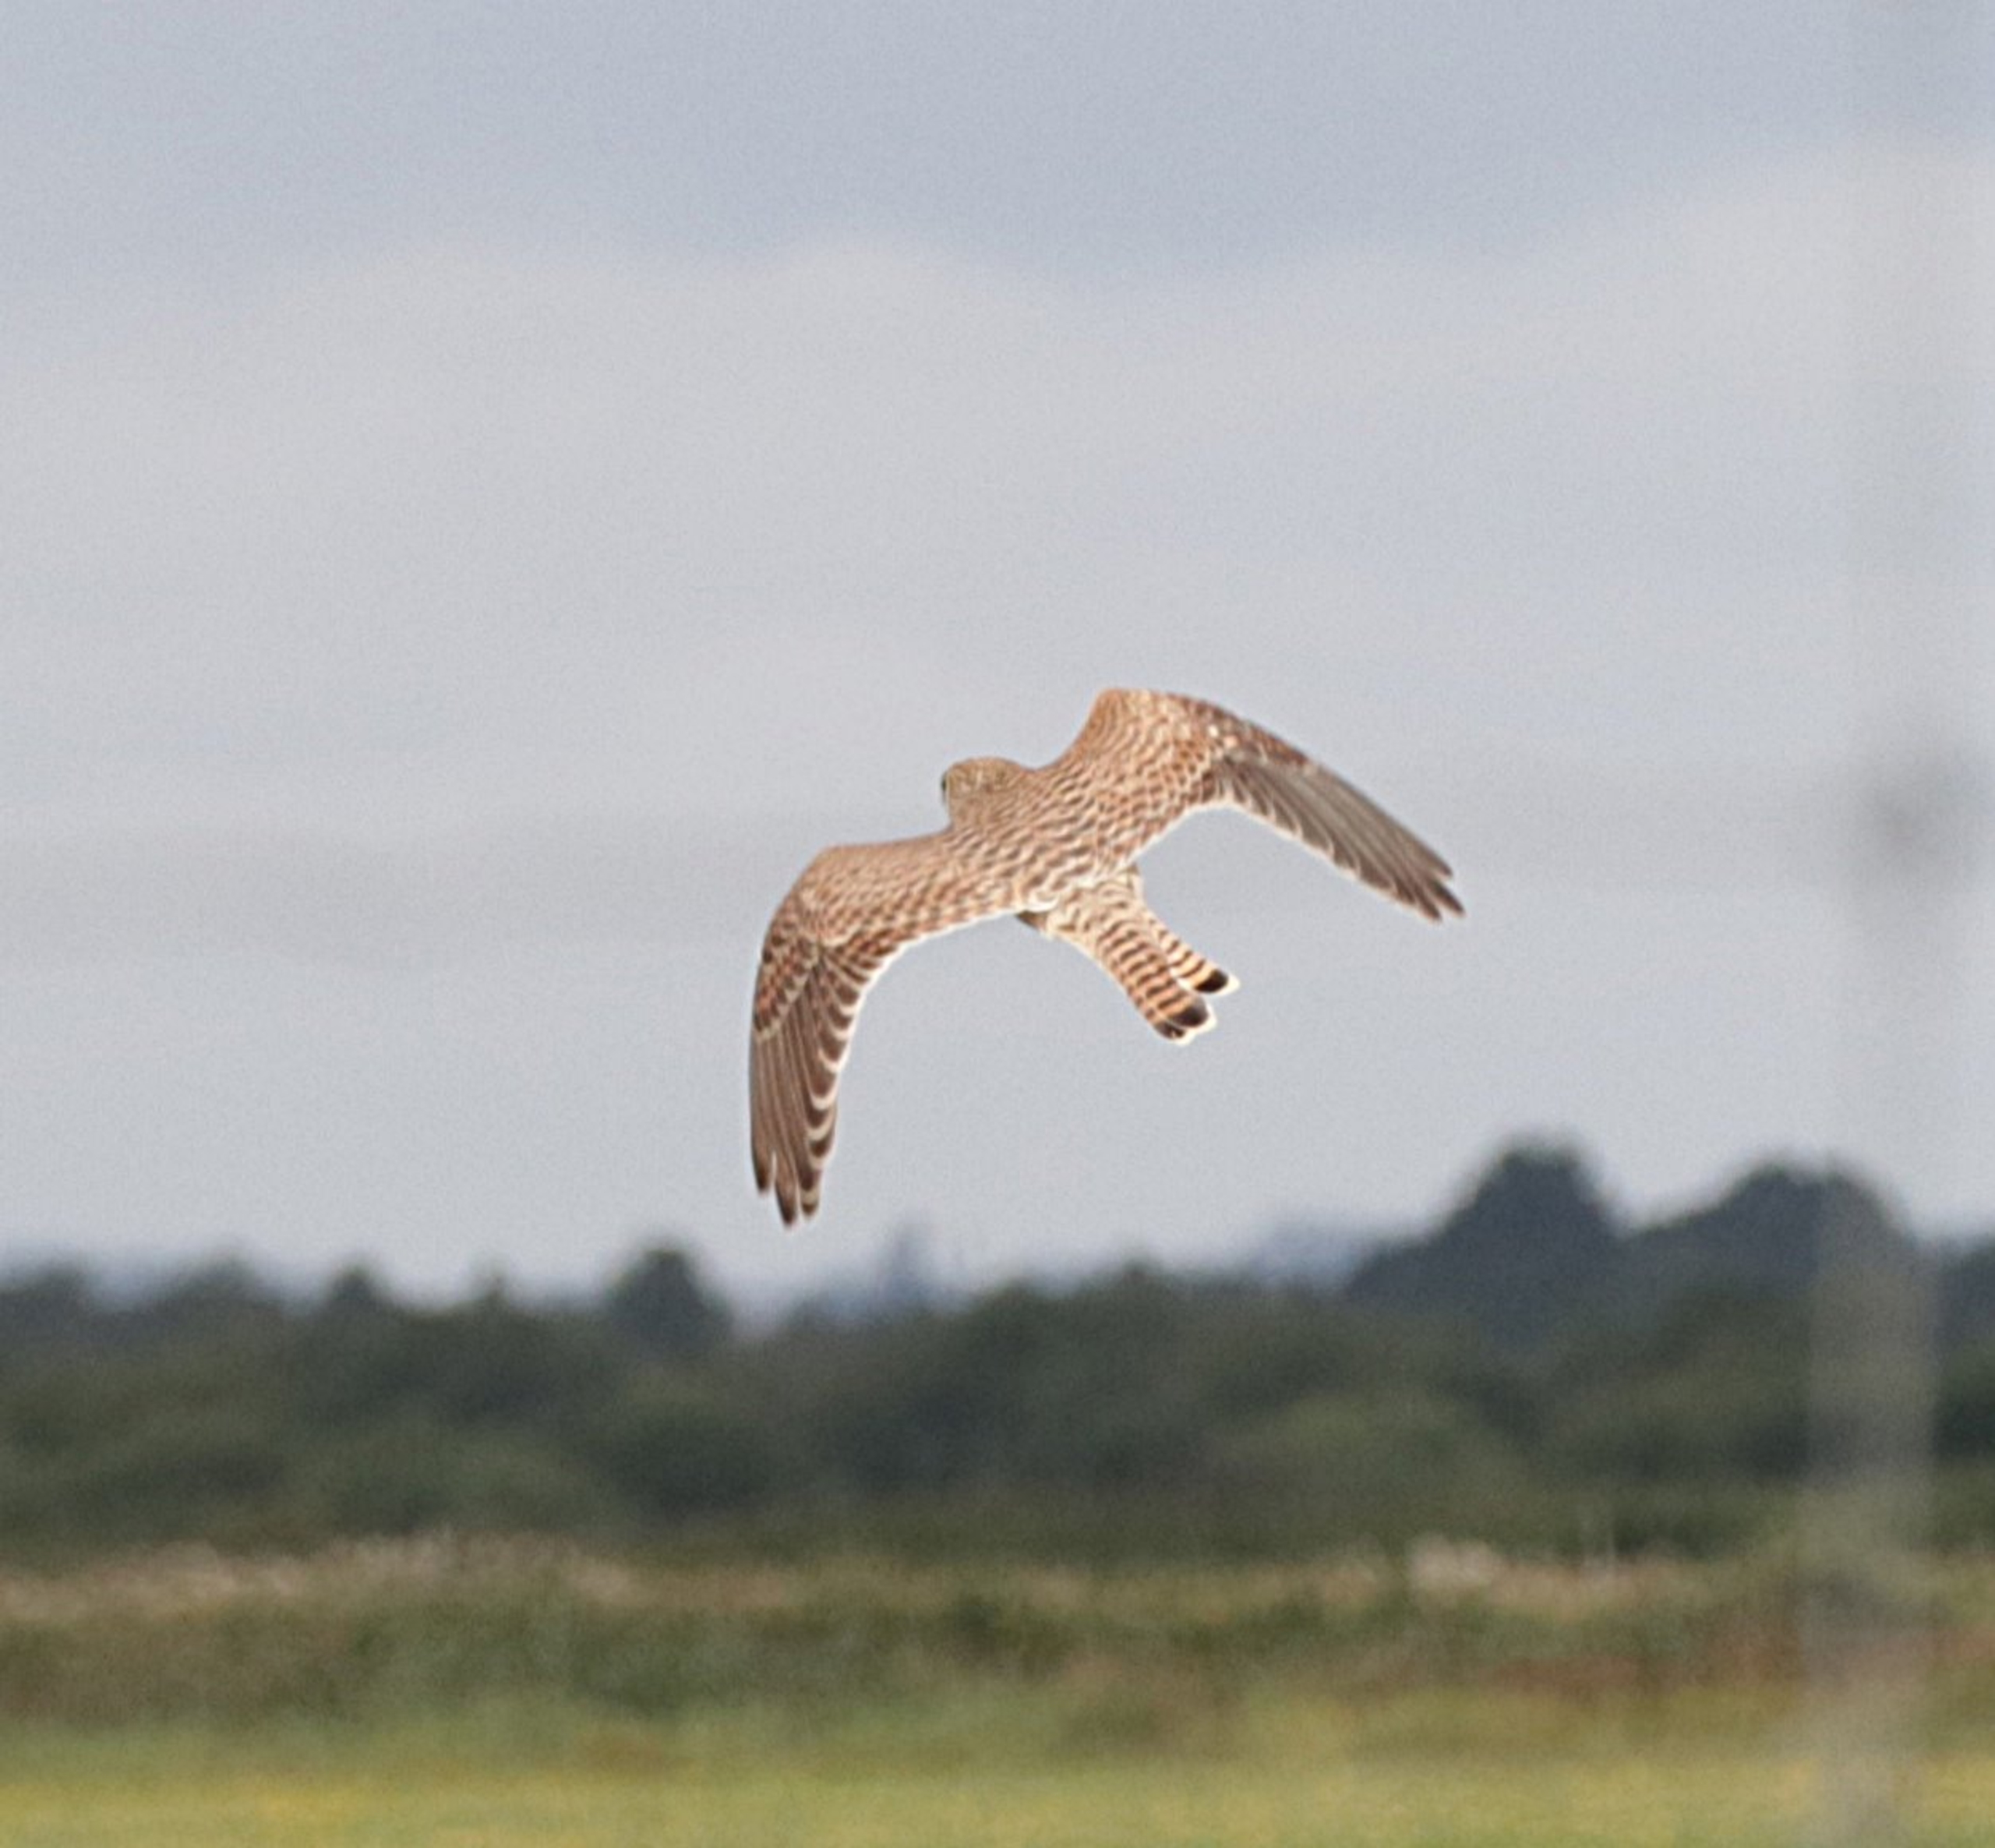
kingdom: Animalia
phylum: Chordata
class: Aves
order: Falconiformes
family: Falconidae
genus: Falco
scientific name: Falco tinnunculus
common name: Tårnfalk
